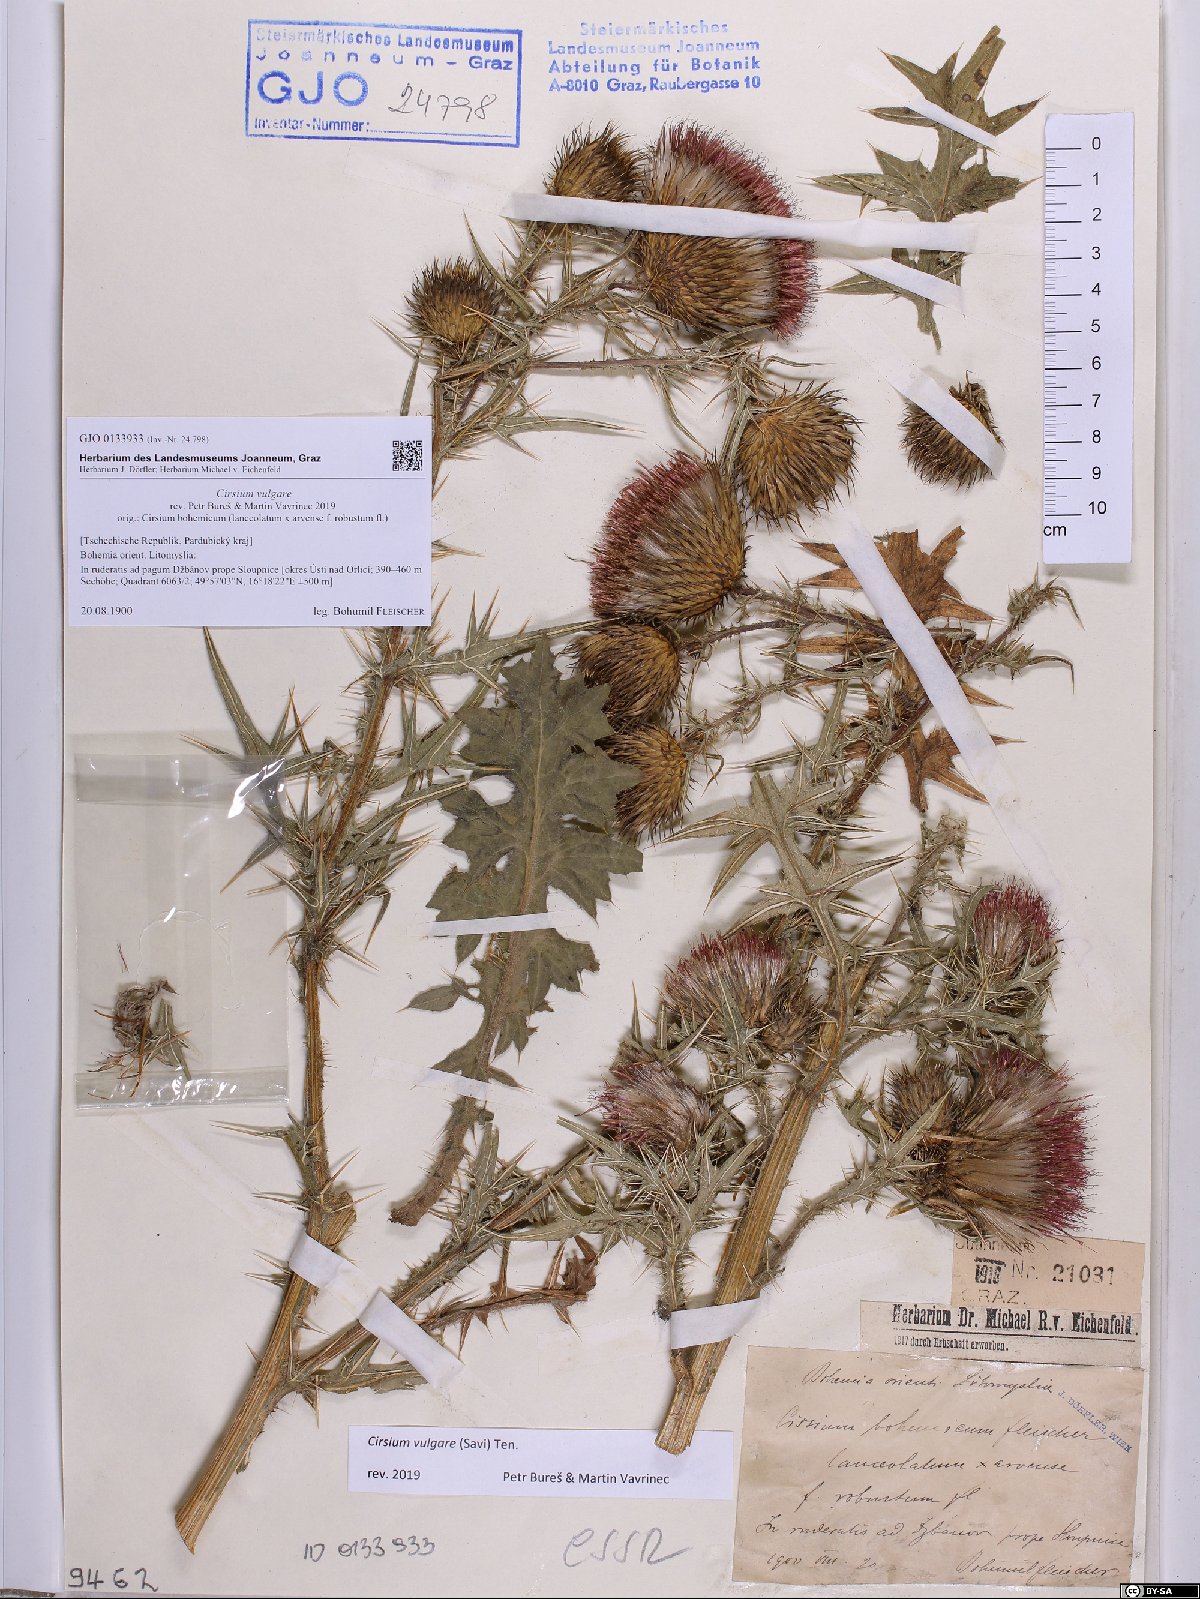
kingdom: Plantae
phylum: Tracheophyta
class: Magnoliopsida
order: Asterales
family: Asteraceae
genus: Cirsium
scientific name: Cirsium vulgare
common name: Bull thistle
